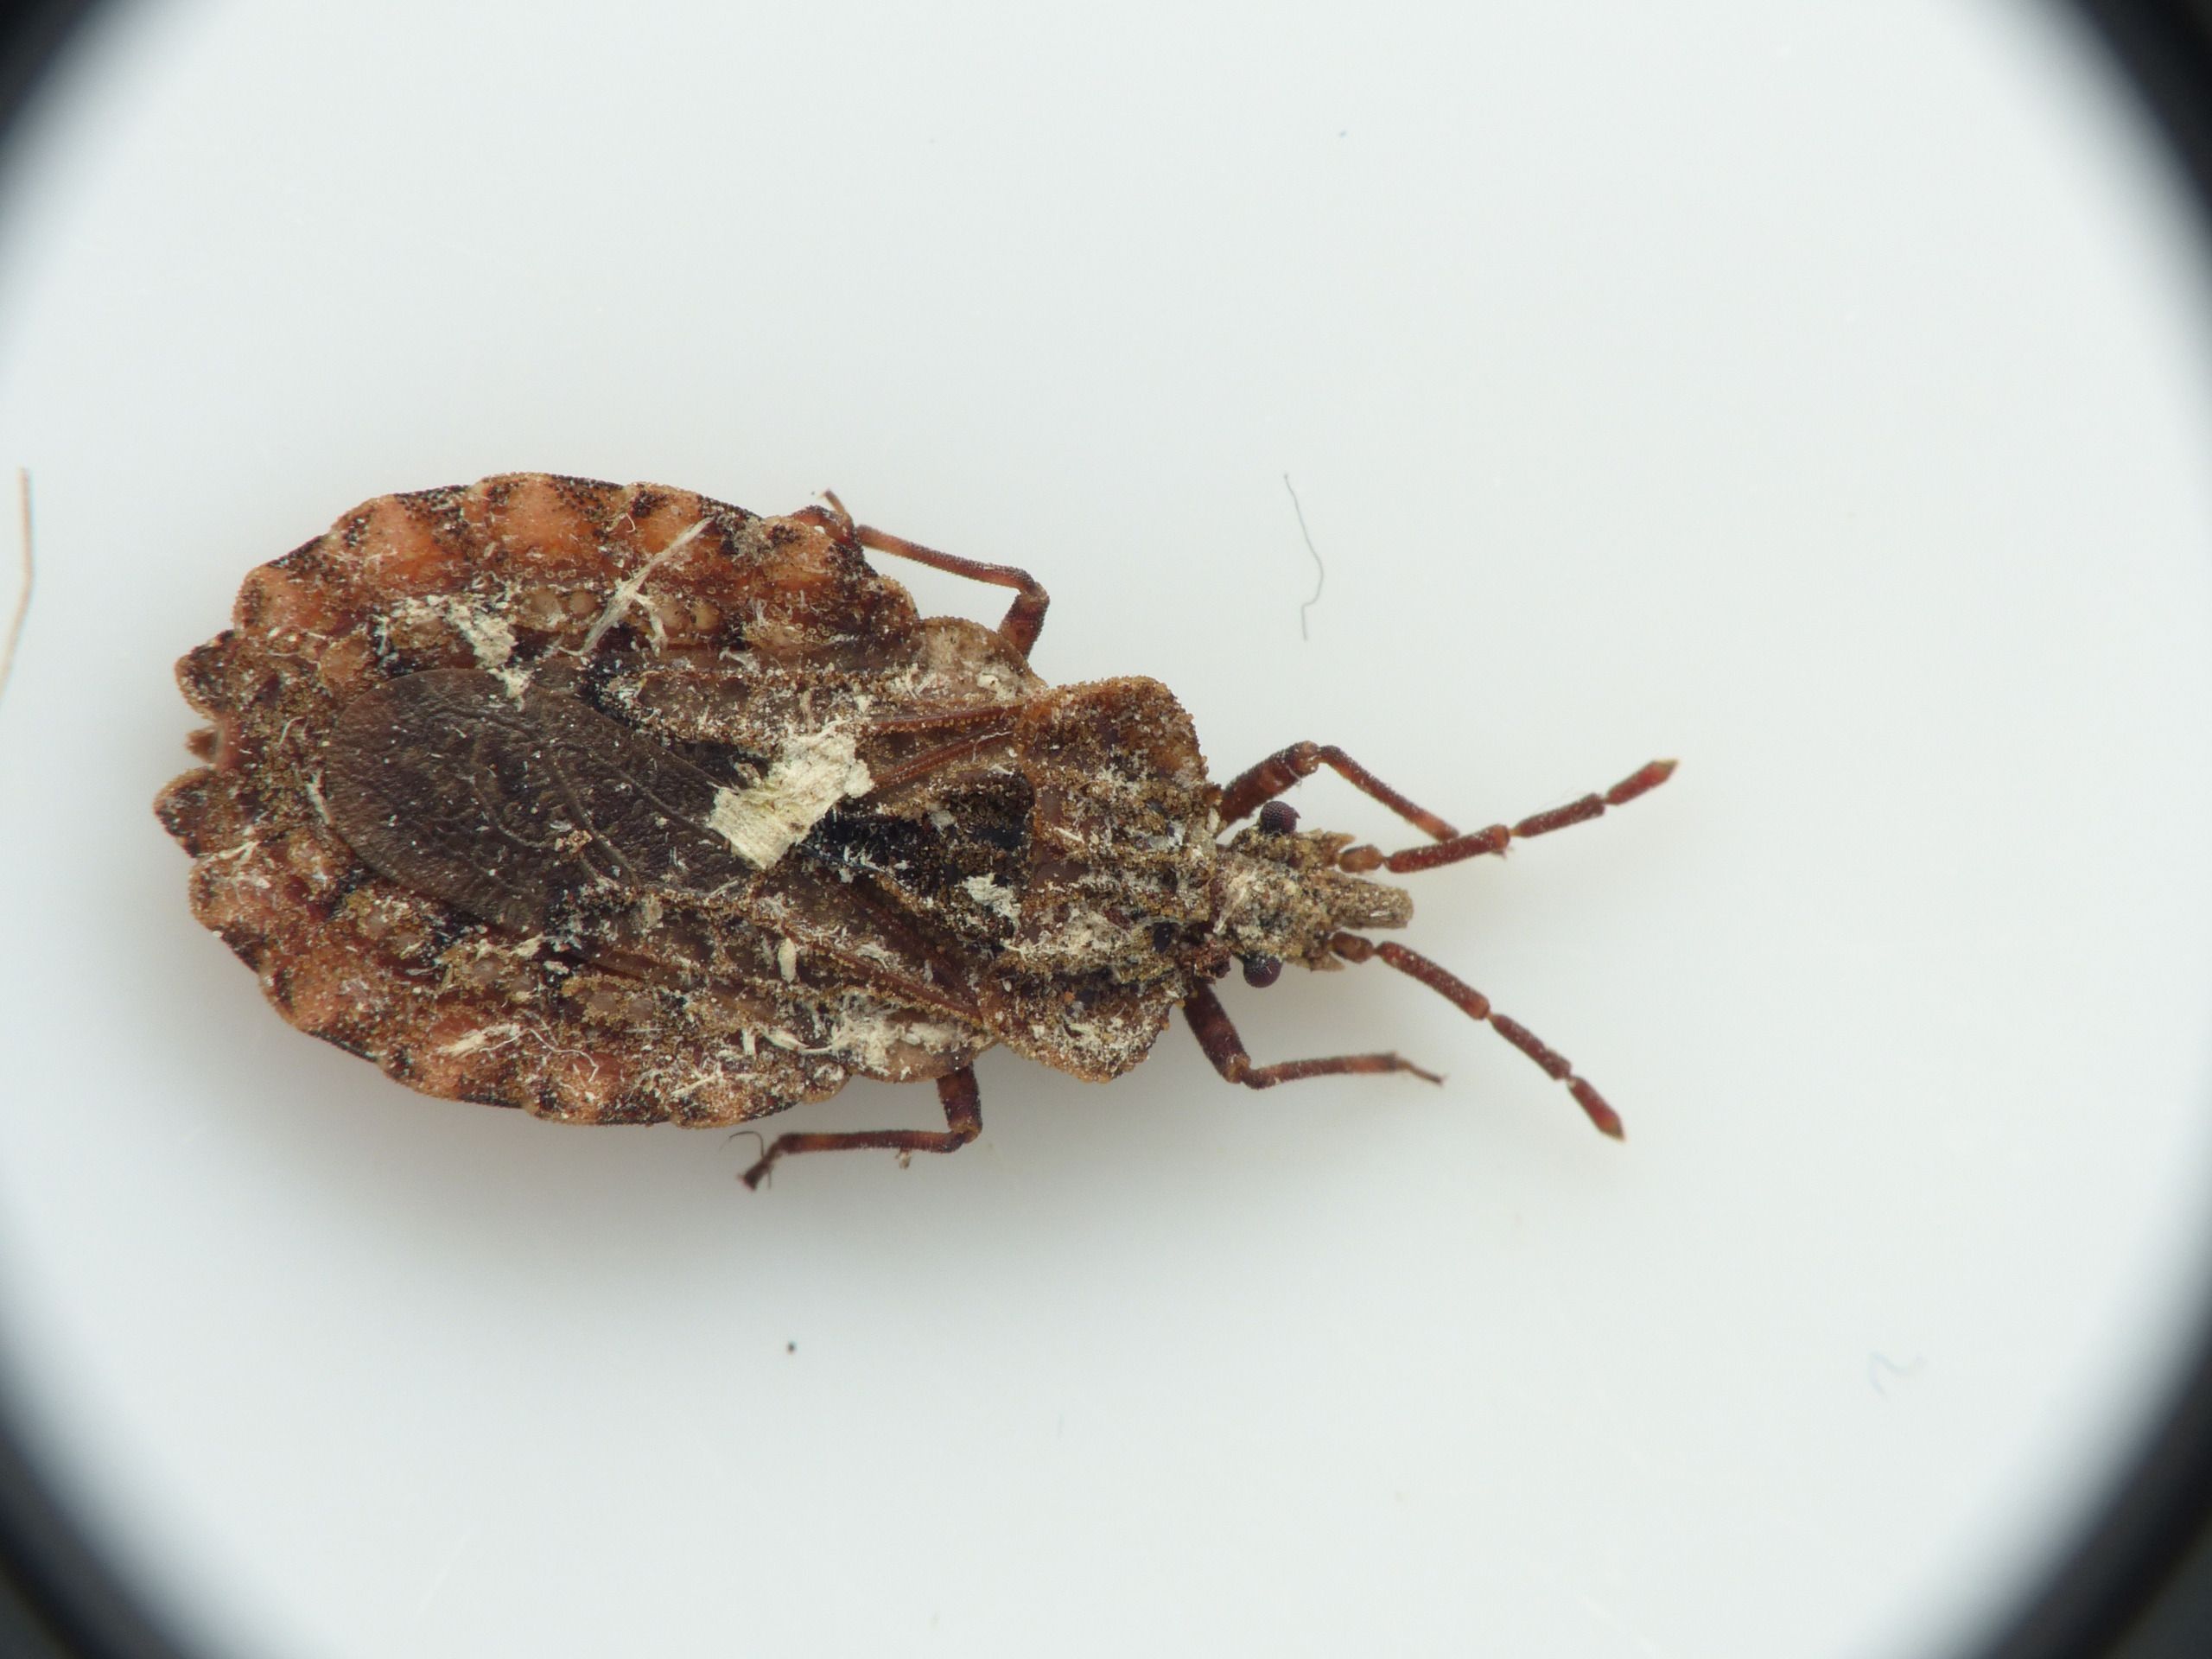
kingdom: Animalia
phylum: Arthropoda
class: Insecta
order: Hemiptera
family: Aradidae
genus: Aradus
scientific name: Aradus conspicuus
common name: Stor barktæge
